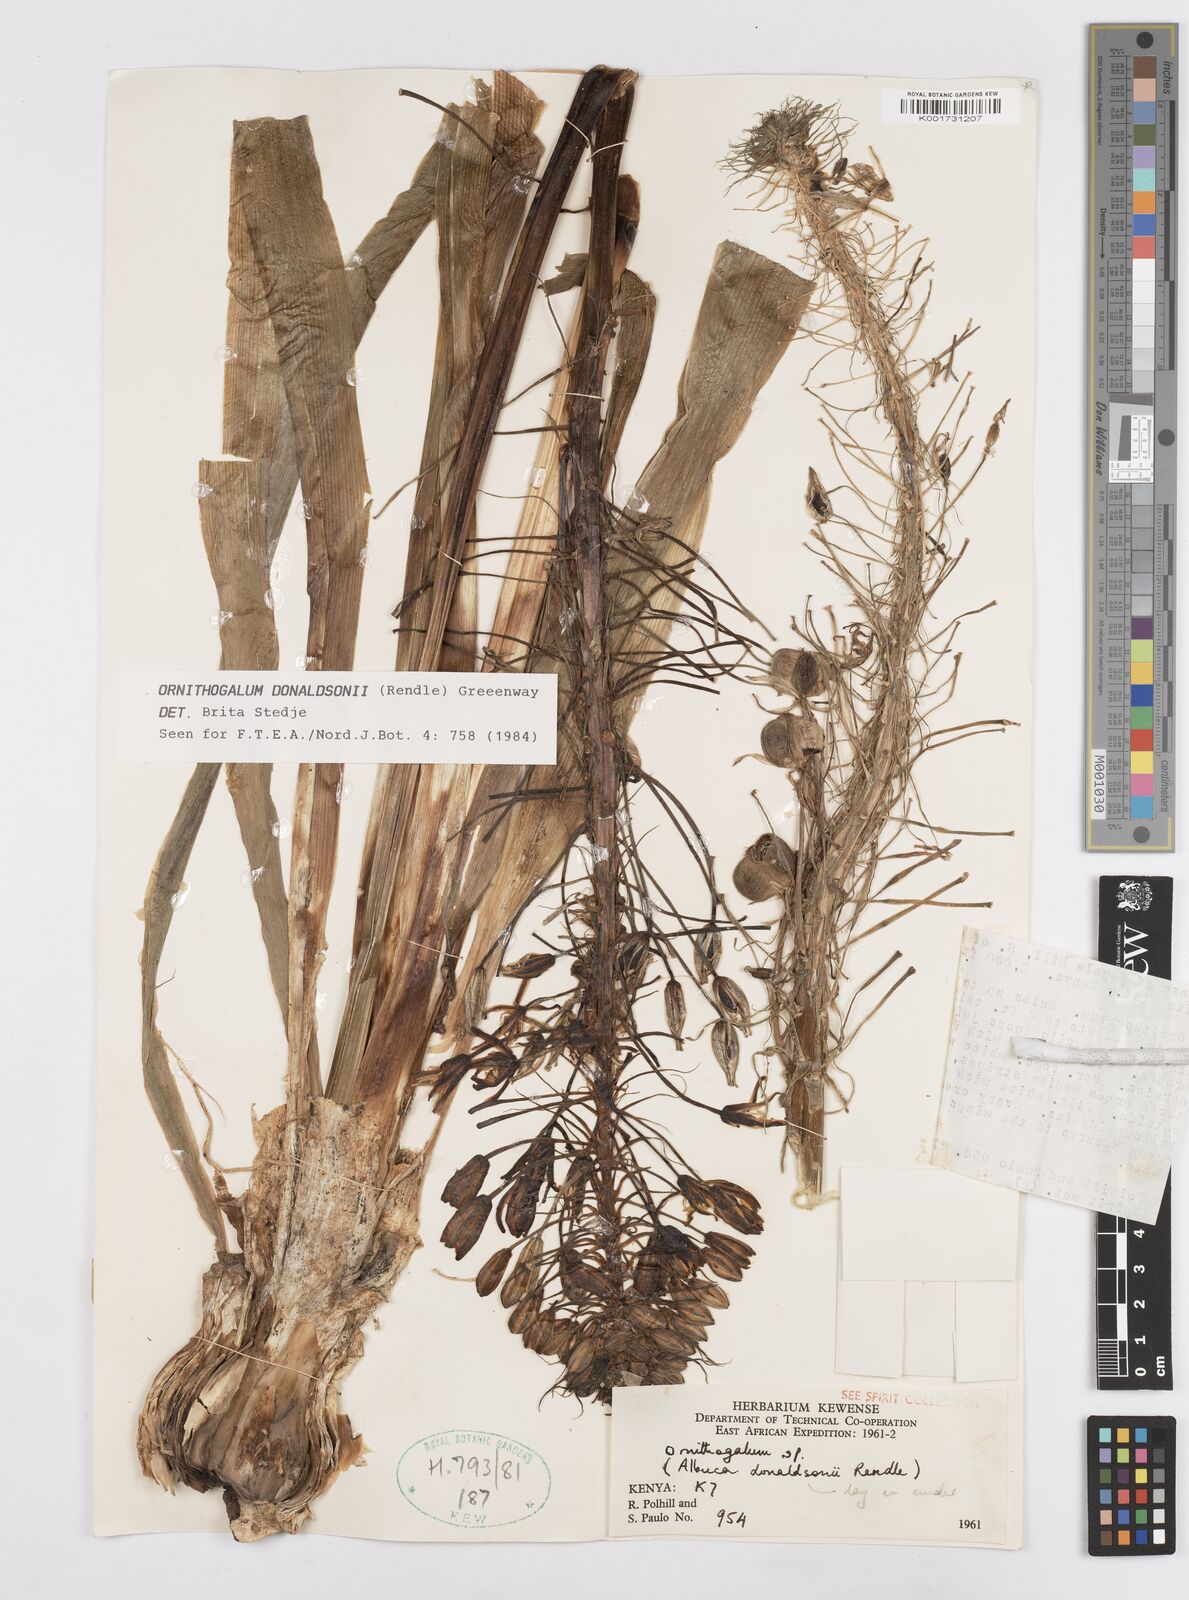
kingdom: Plantae
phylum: Tracheophyta
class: Liliopsida
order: Asparagales
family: Asparagaceae
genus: Albuca
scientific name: Albuca donaldsonii
